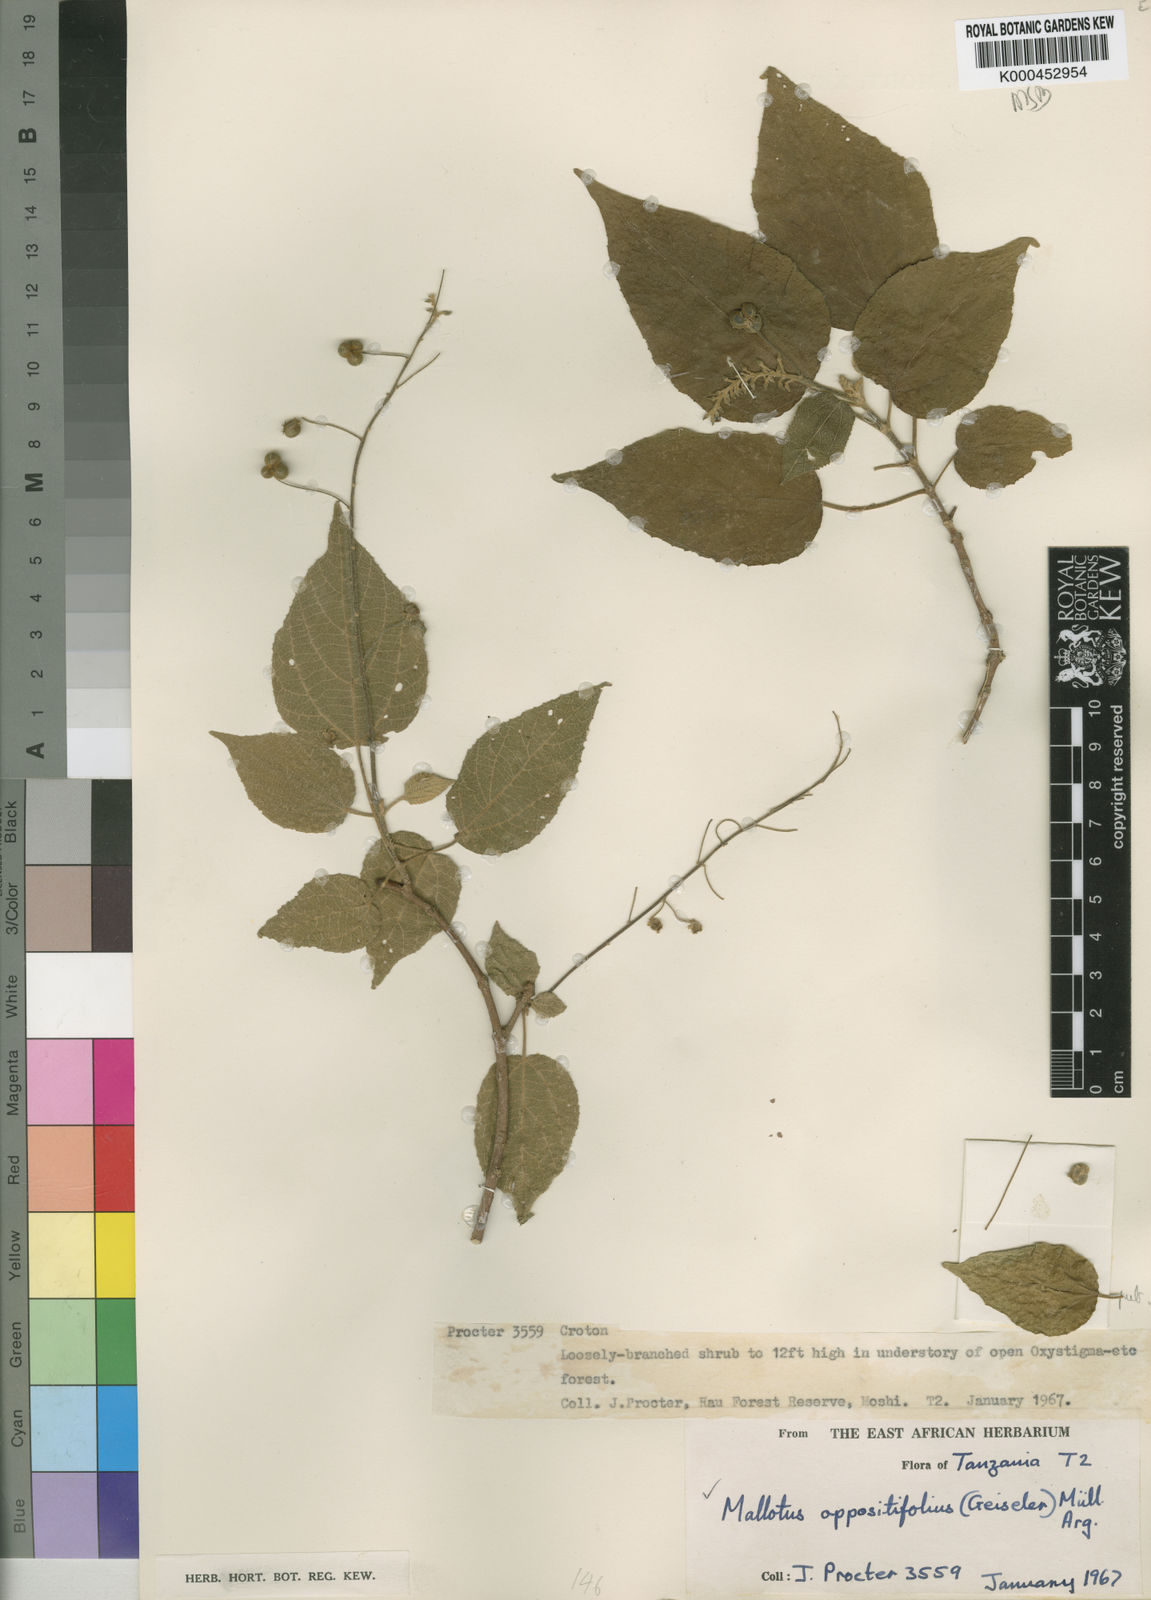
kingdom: Plantae
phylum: Tracheophyta
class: Magnoliopsida
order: Malpighiales
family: Euphorbiaceae
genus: Mallotus
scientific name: Mallotus
